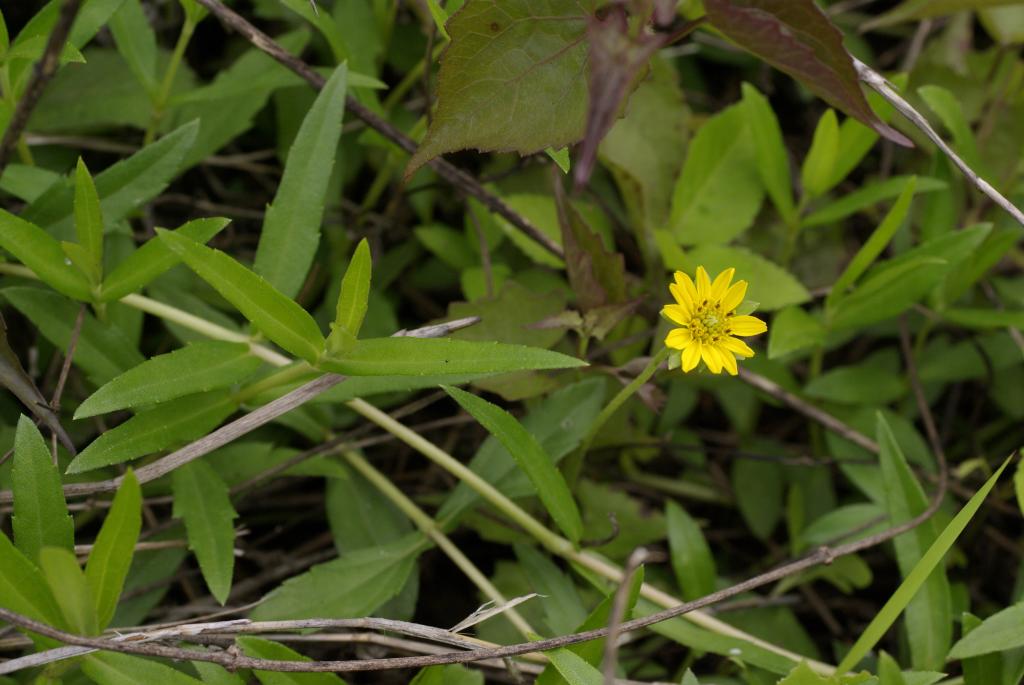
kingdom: Plantae
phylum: Tracheophyta
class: Magnoliopsida
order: Asterales
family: Asteraceae
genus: Sphagneticola
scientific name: Sphagneticola calendulacea
